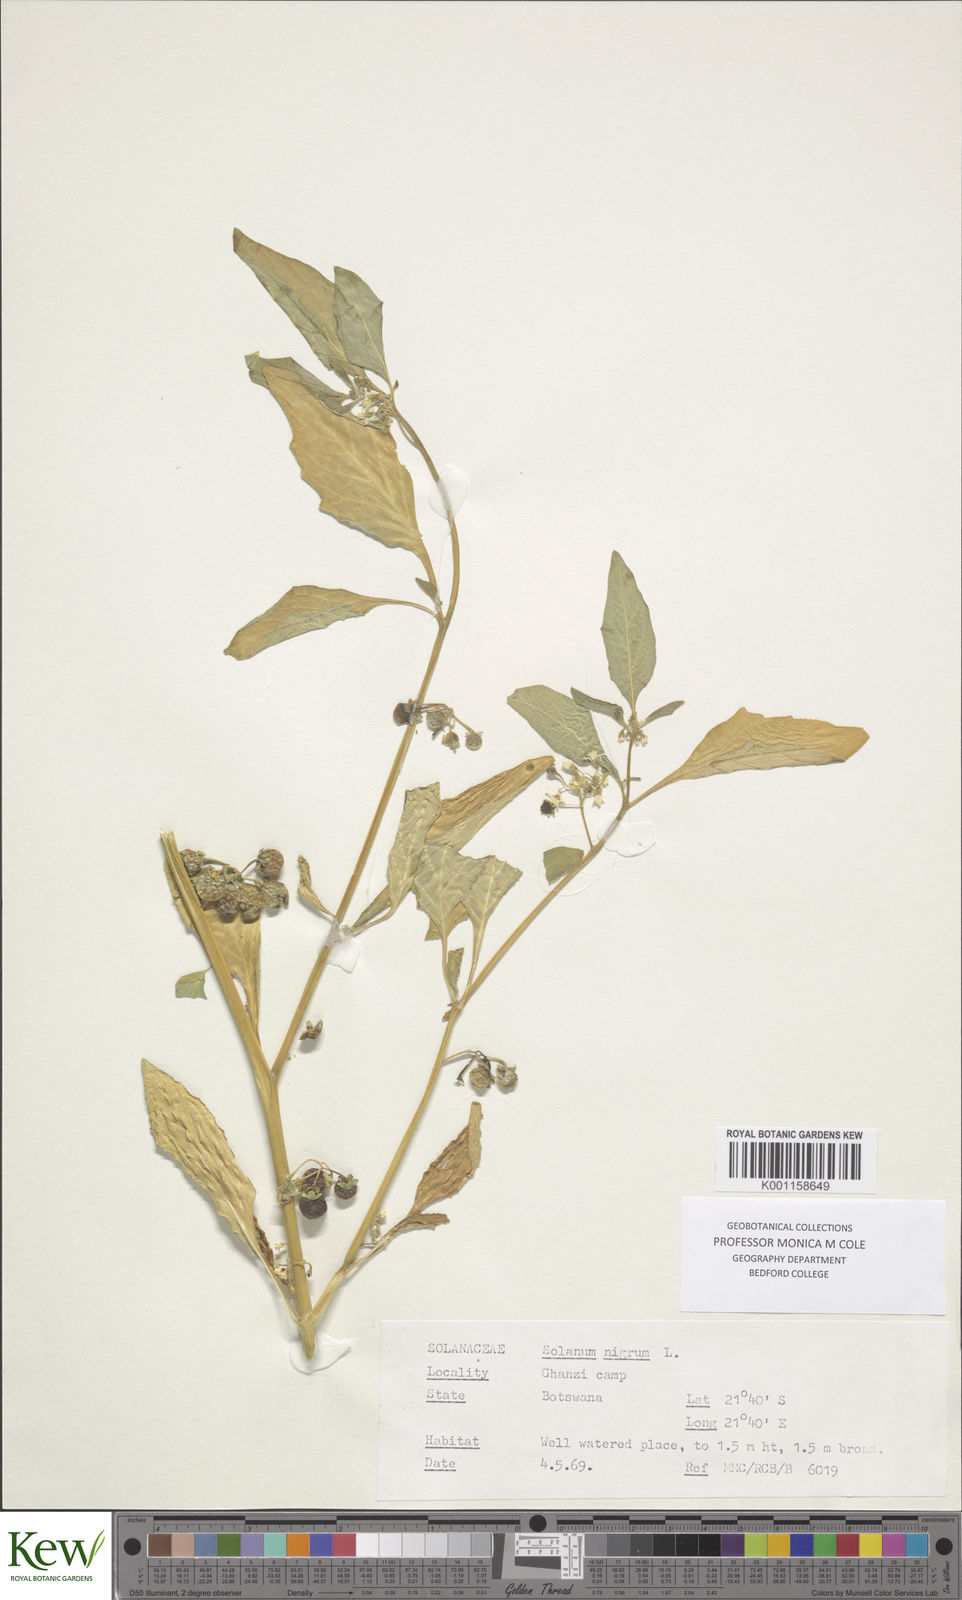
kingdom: Plantae
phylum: Tracheophyta
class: Magnoliopsida
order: Solanales
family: Solanaceae
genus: Solanum
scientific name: Solanum nigrum
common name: Black nightshade
